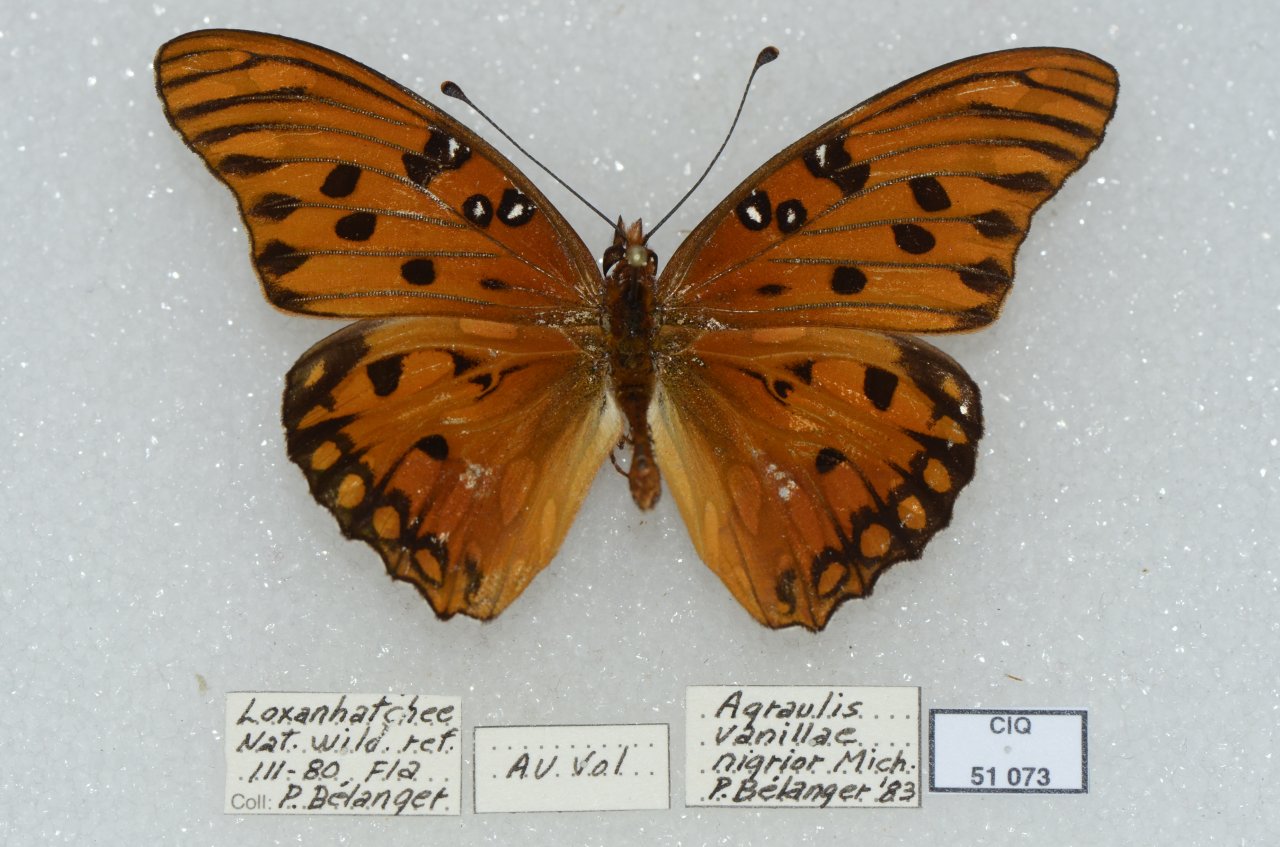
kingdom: Animalia
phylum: Arthropoda
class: Insecta
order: Lepidoptera
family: Nymphalidae
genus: Dione
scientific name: Dione vanillae
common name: Gulf Fritillary
